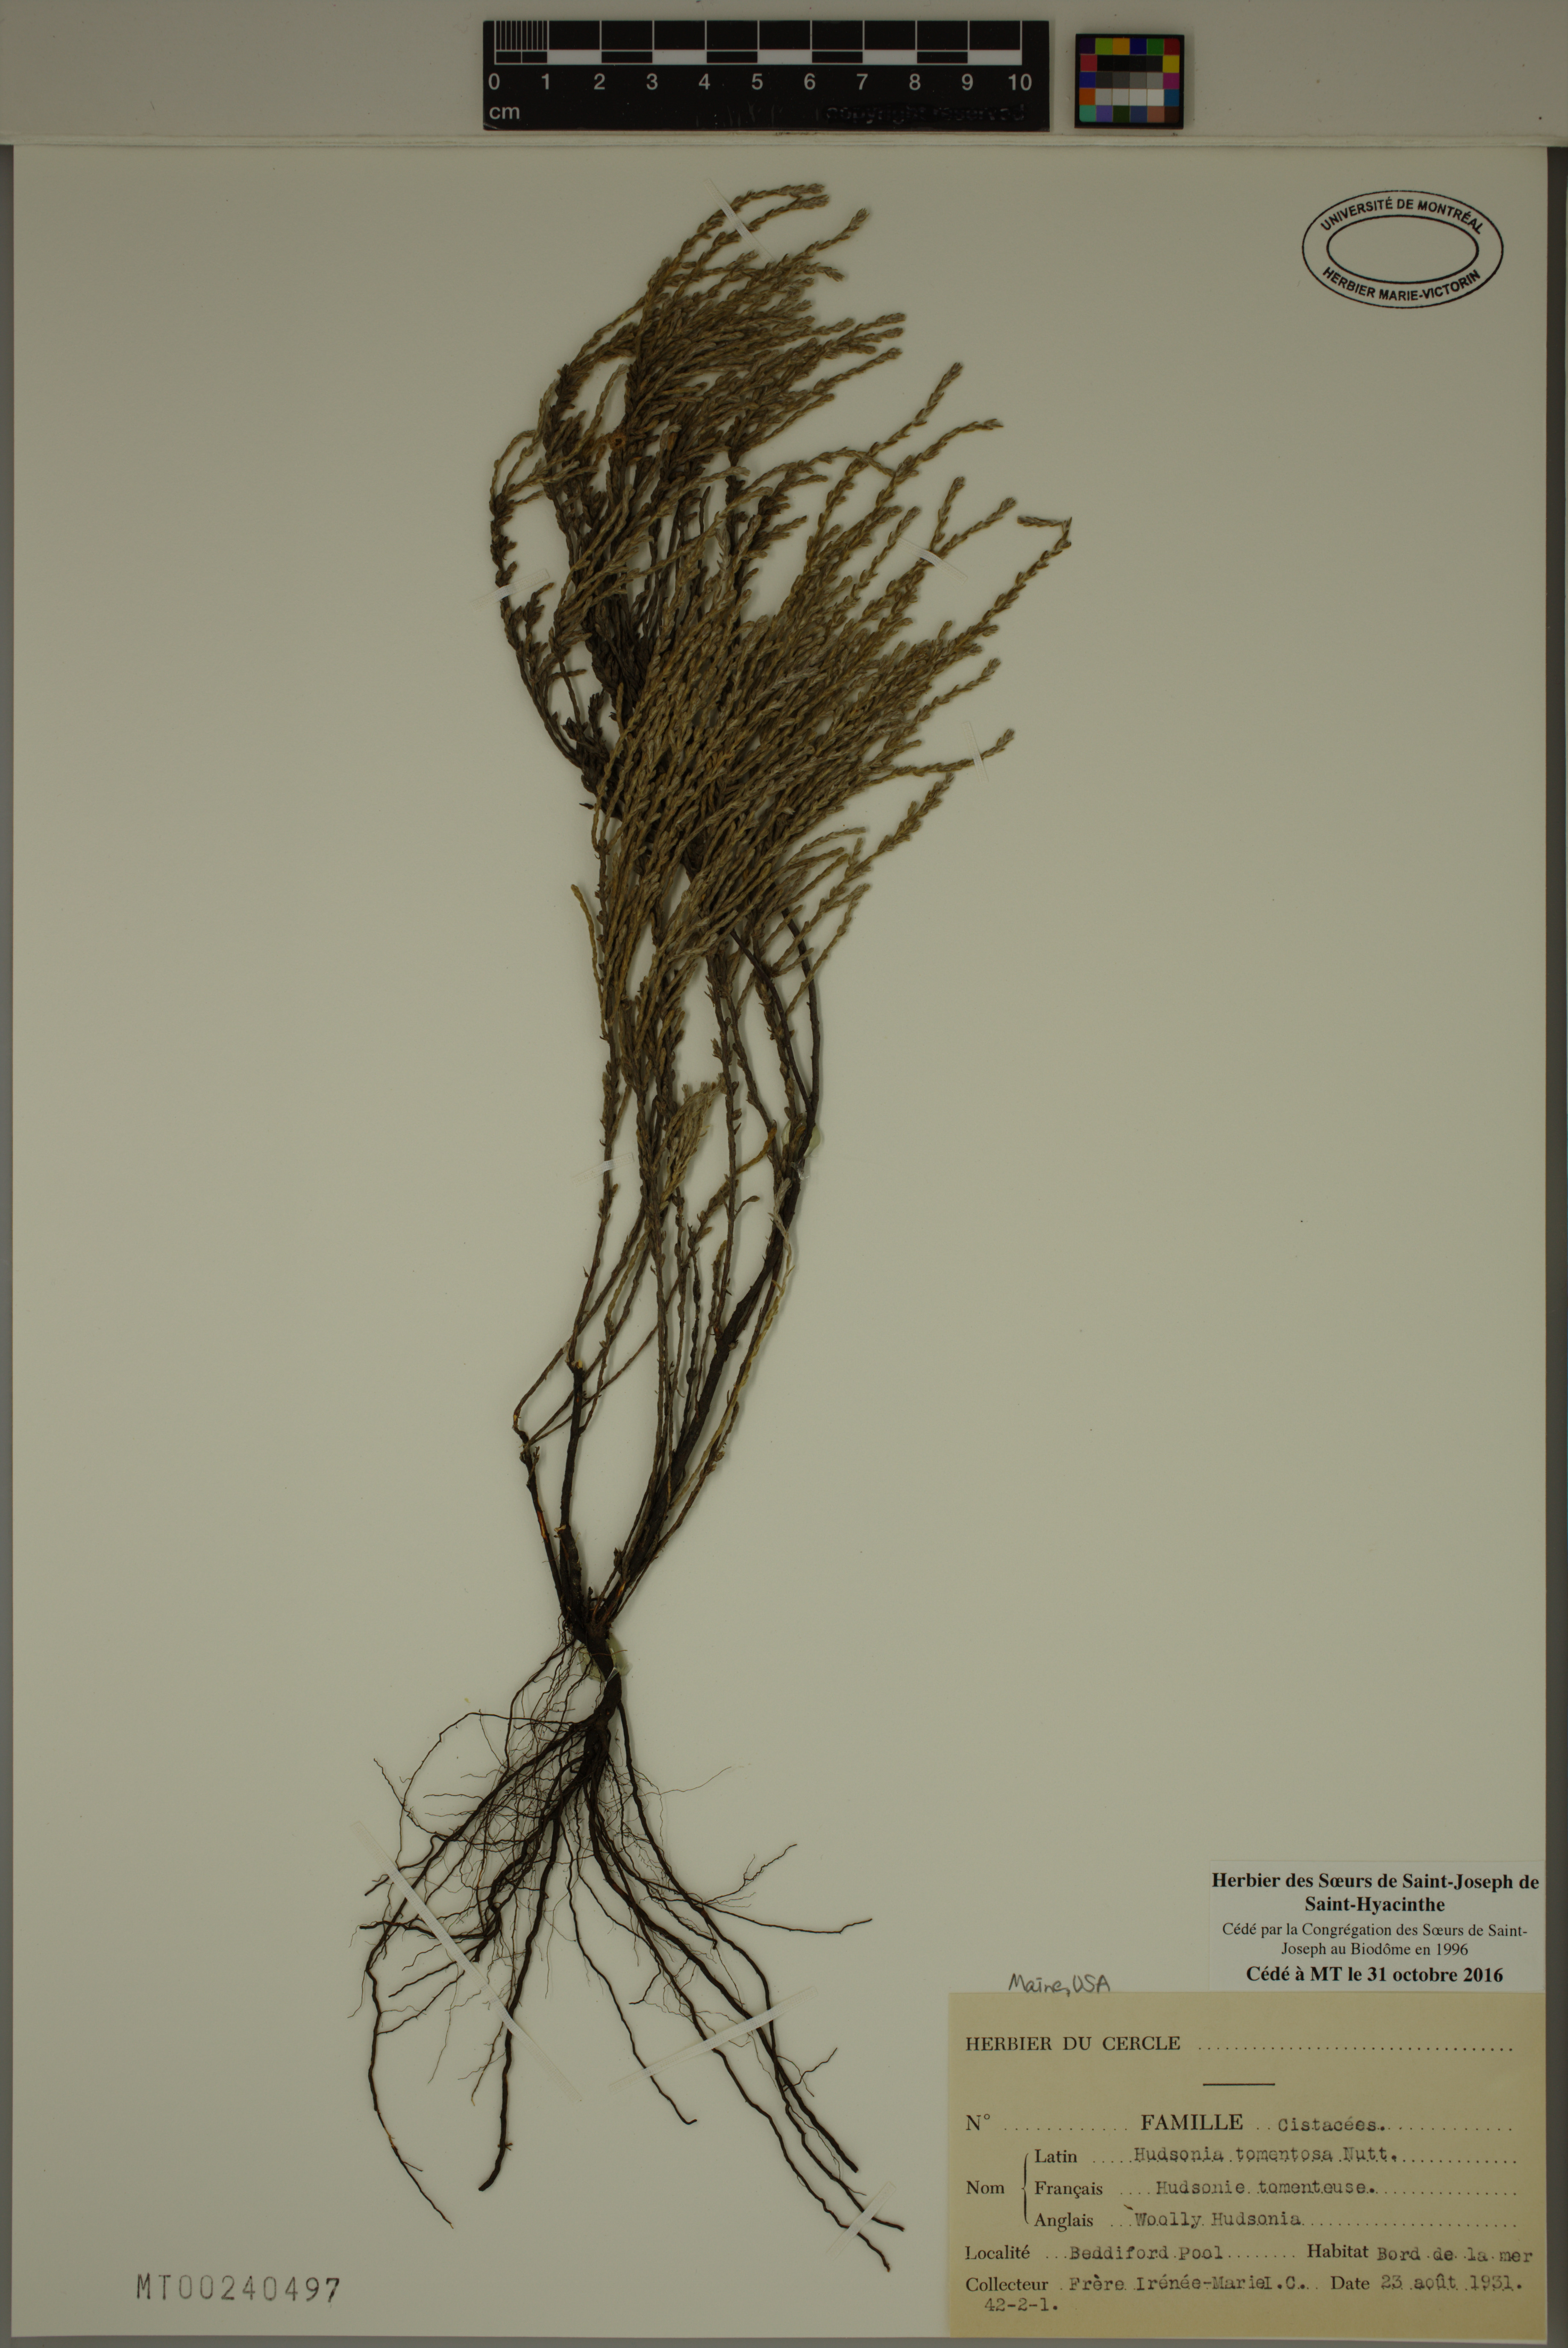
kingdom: Plantae
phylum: Tracheophyta
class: Magnoliopsida
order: Malvales
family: Cistaceae
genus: Hudsonia
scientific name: Hudsonia tomentosa
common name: Beach-heath
